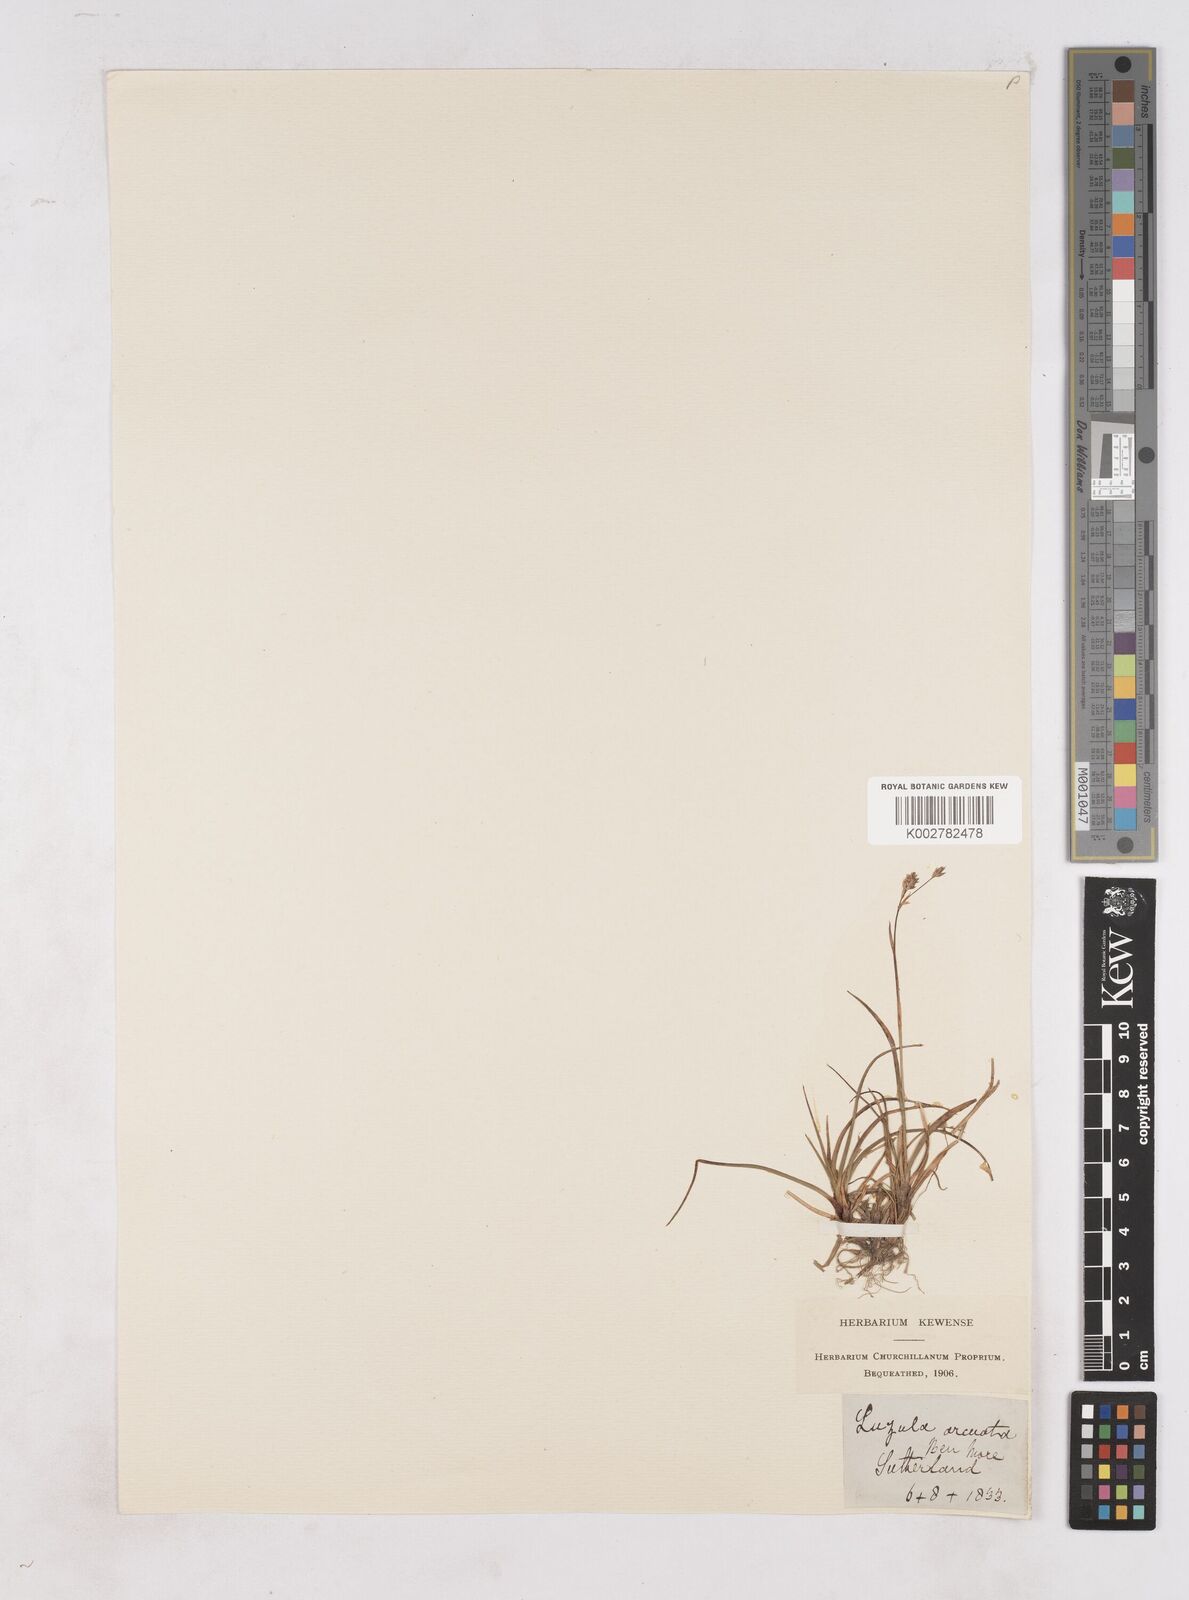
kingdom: Plantae
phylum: Tracheophyta
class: Liliopsida
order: Poales
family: Juncaceae
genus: Luzula
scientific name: Luzula arcuata
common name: Curved wood-rush
